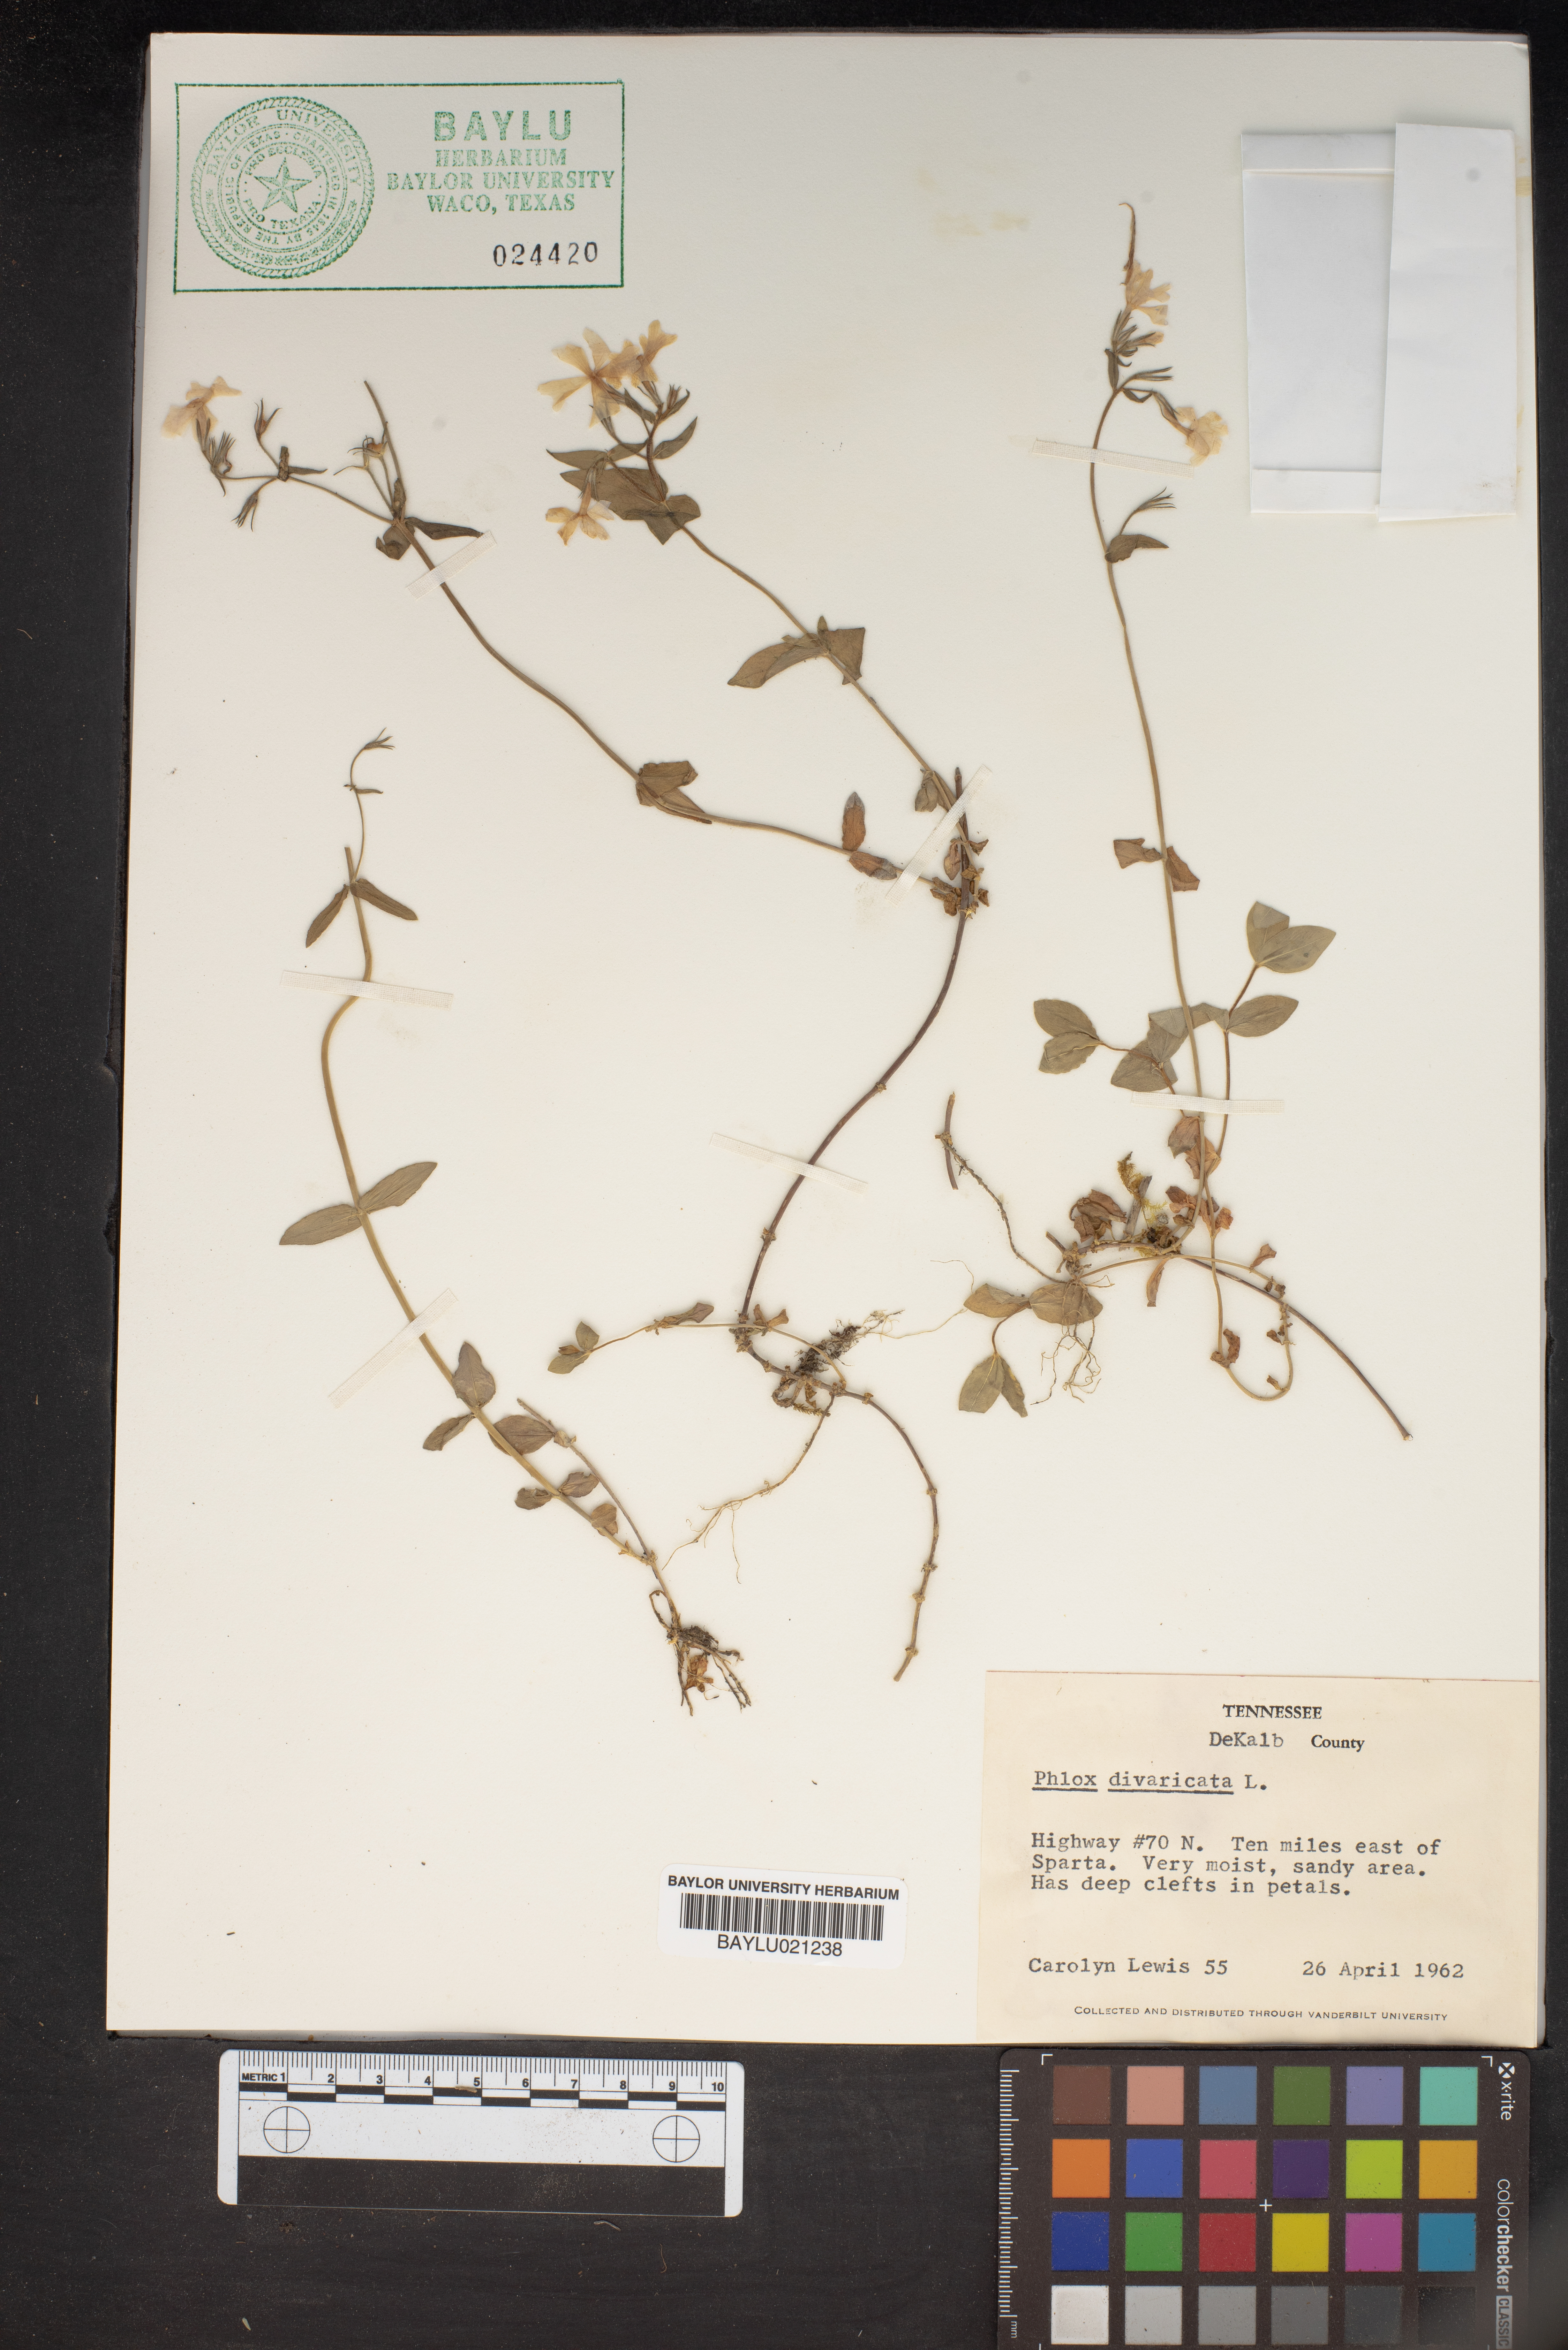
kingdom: Plantae
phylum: Tracheophyta
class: Magnoliopsida
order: Ericales
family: Polemoniaceae
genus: Phlox
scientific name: Phlox divaricata
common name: Blue phlox
